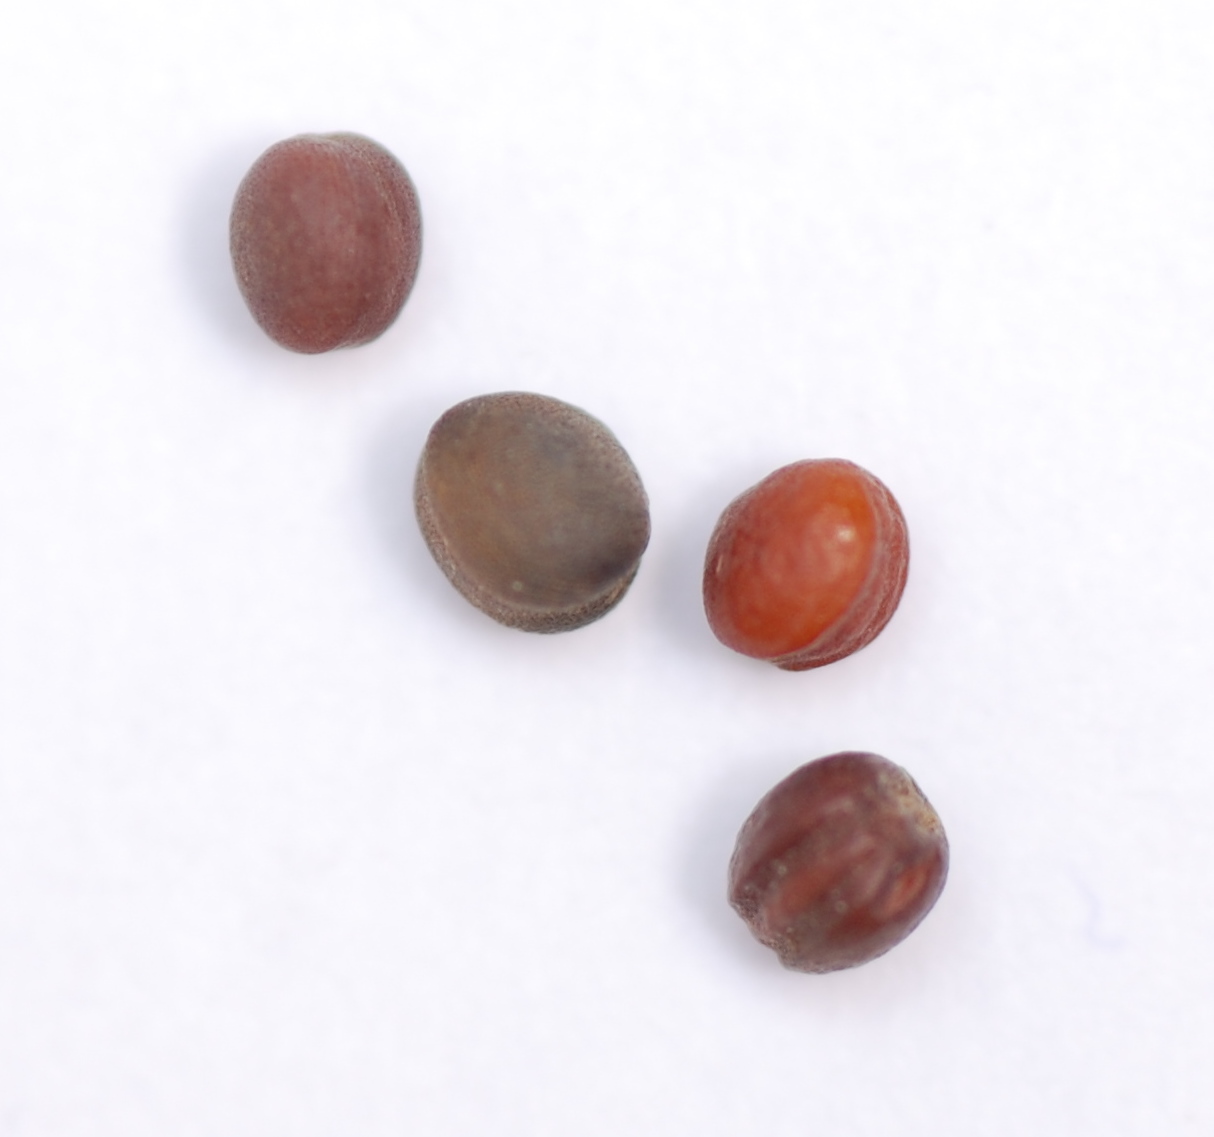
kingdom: Plantae
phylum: Tracheophyta
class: Magnoliopsida
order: Brassicales
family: Brassicaceae
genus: Brassica
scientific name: Brassica oleracea
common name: Cabbage
